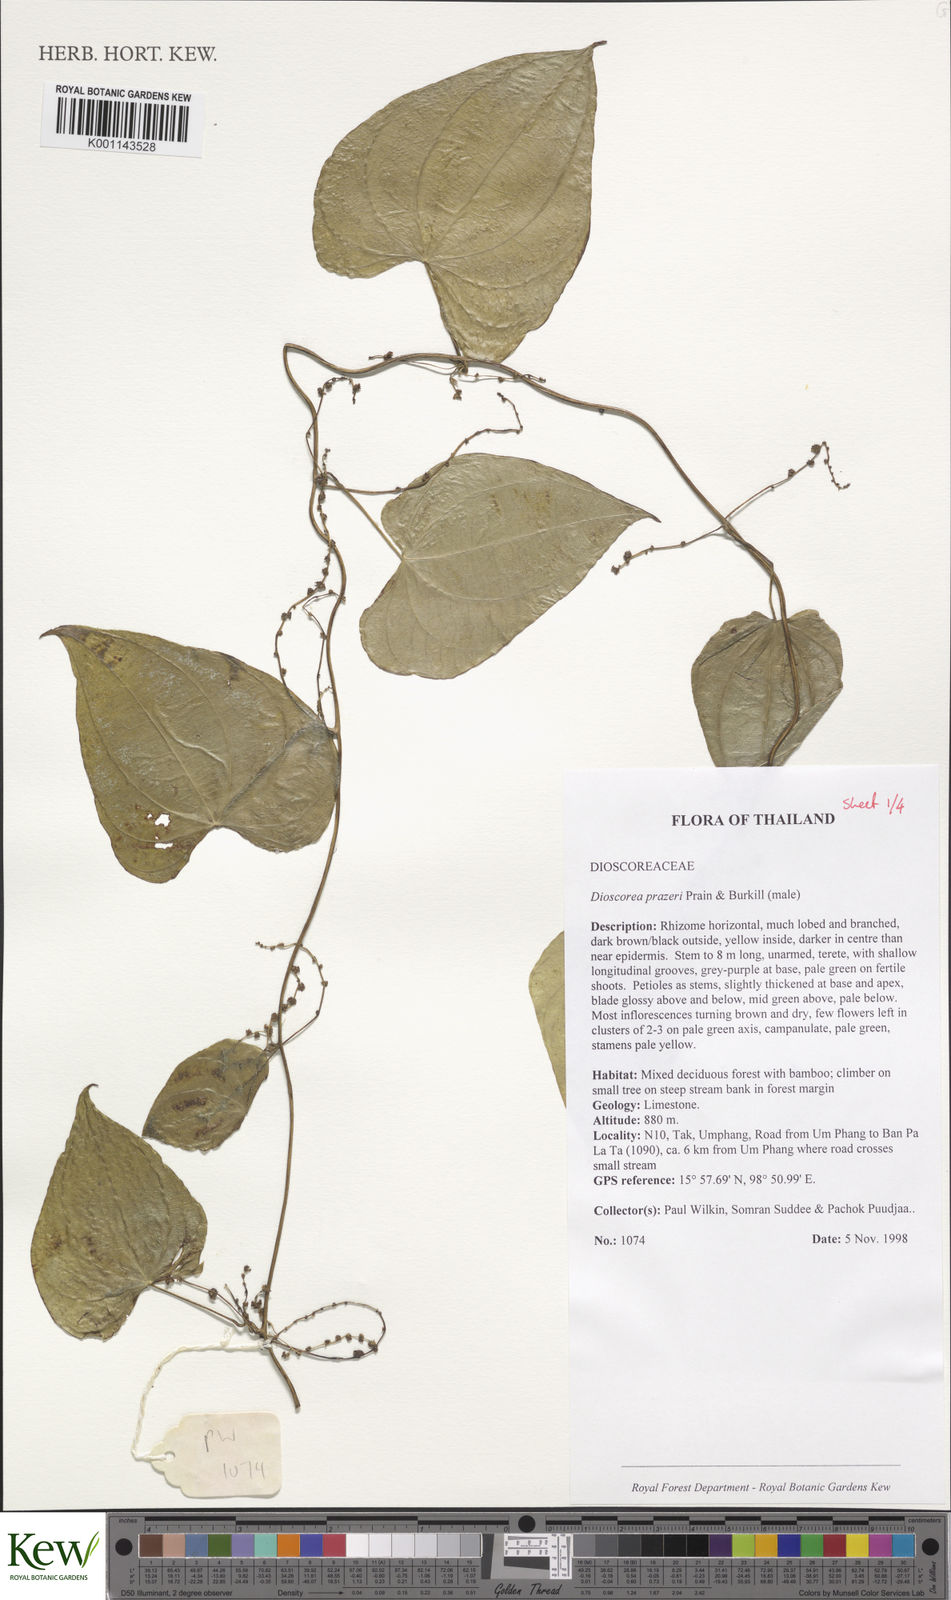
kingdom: Plantae
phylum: Tracheophyta
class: Liliopsida
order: Dioscoreales
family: Dioscoreaceae
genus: Dioscorea
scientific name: Dioscorea prazeri
